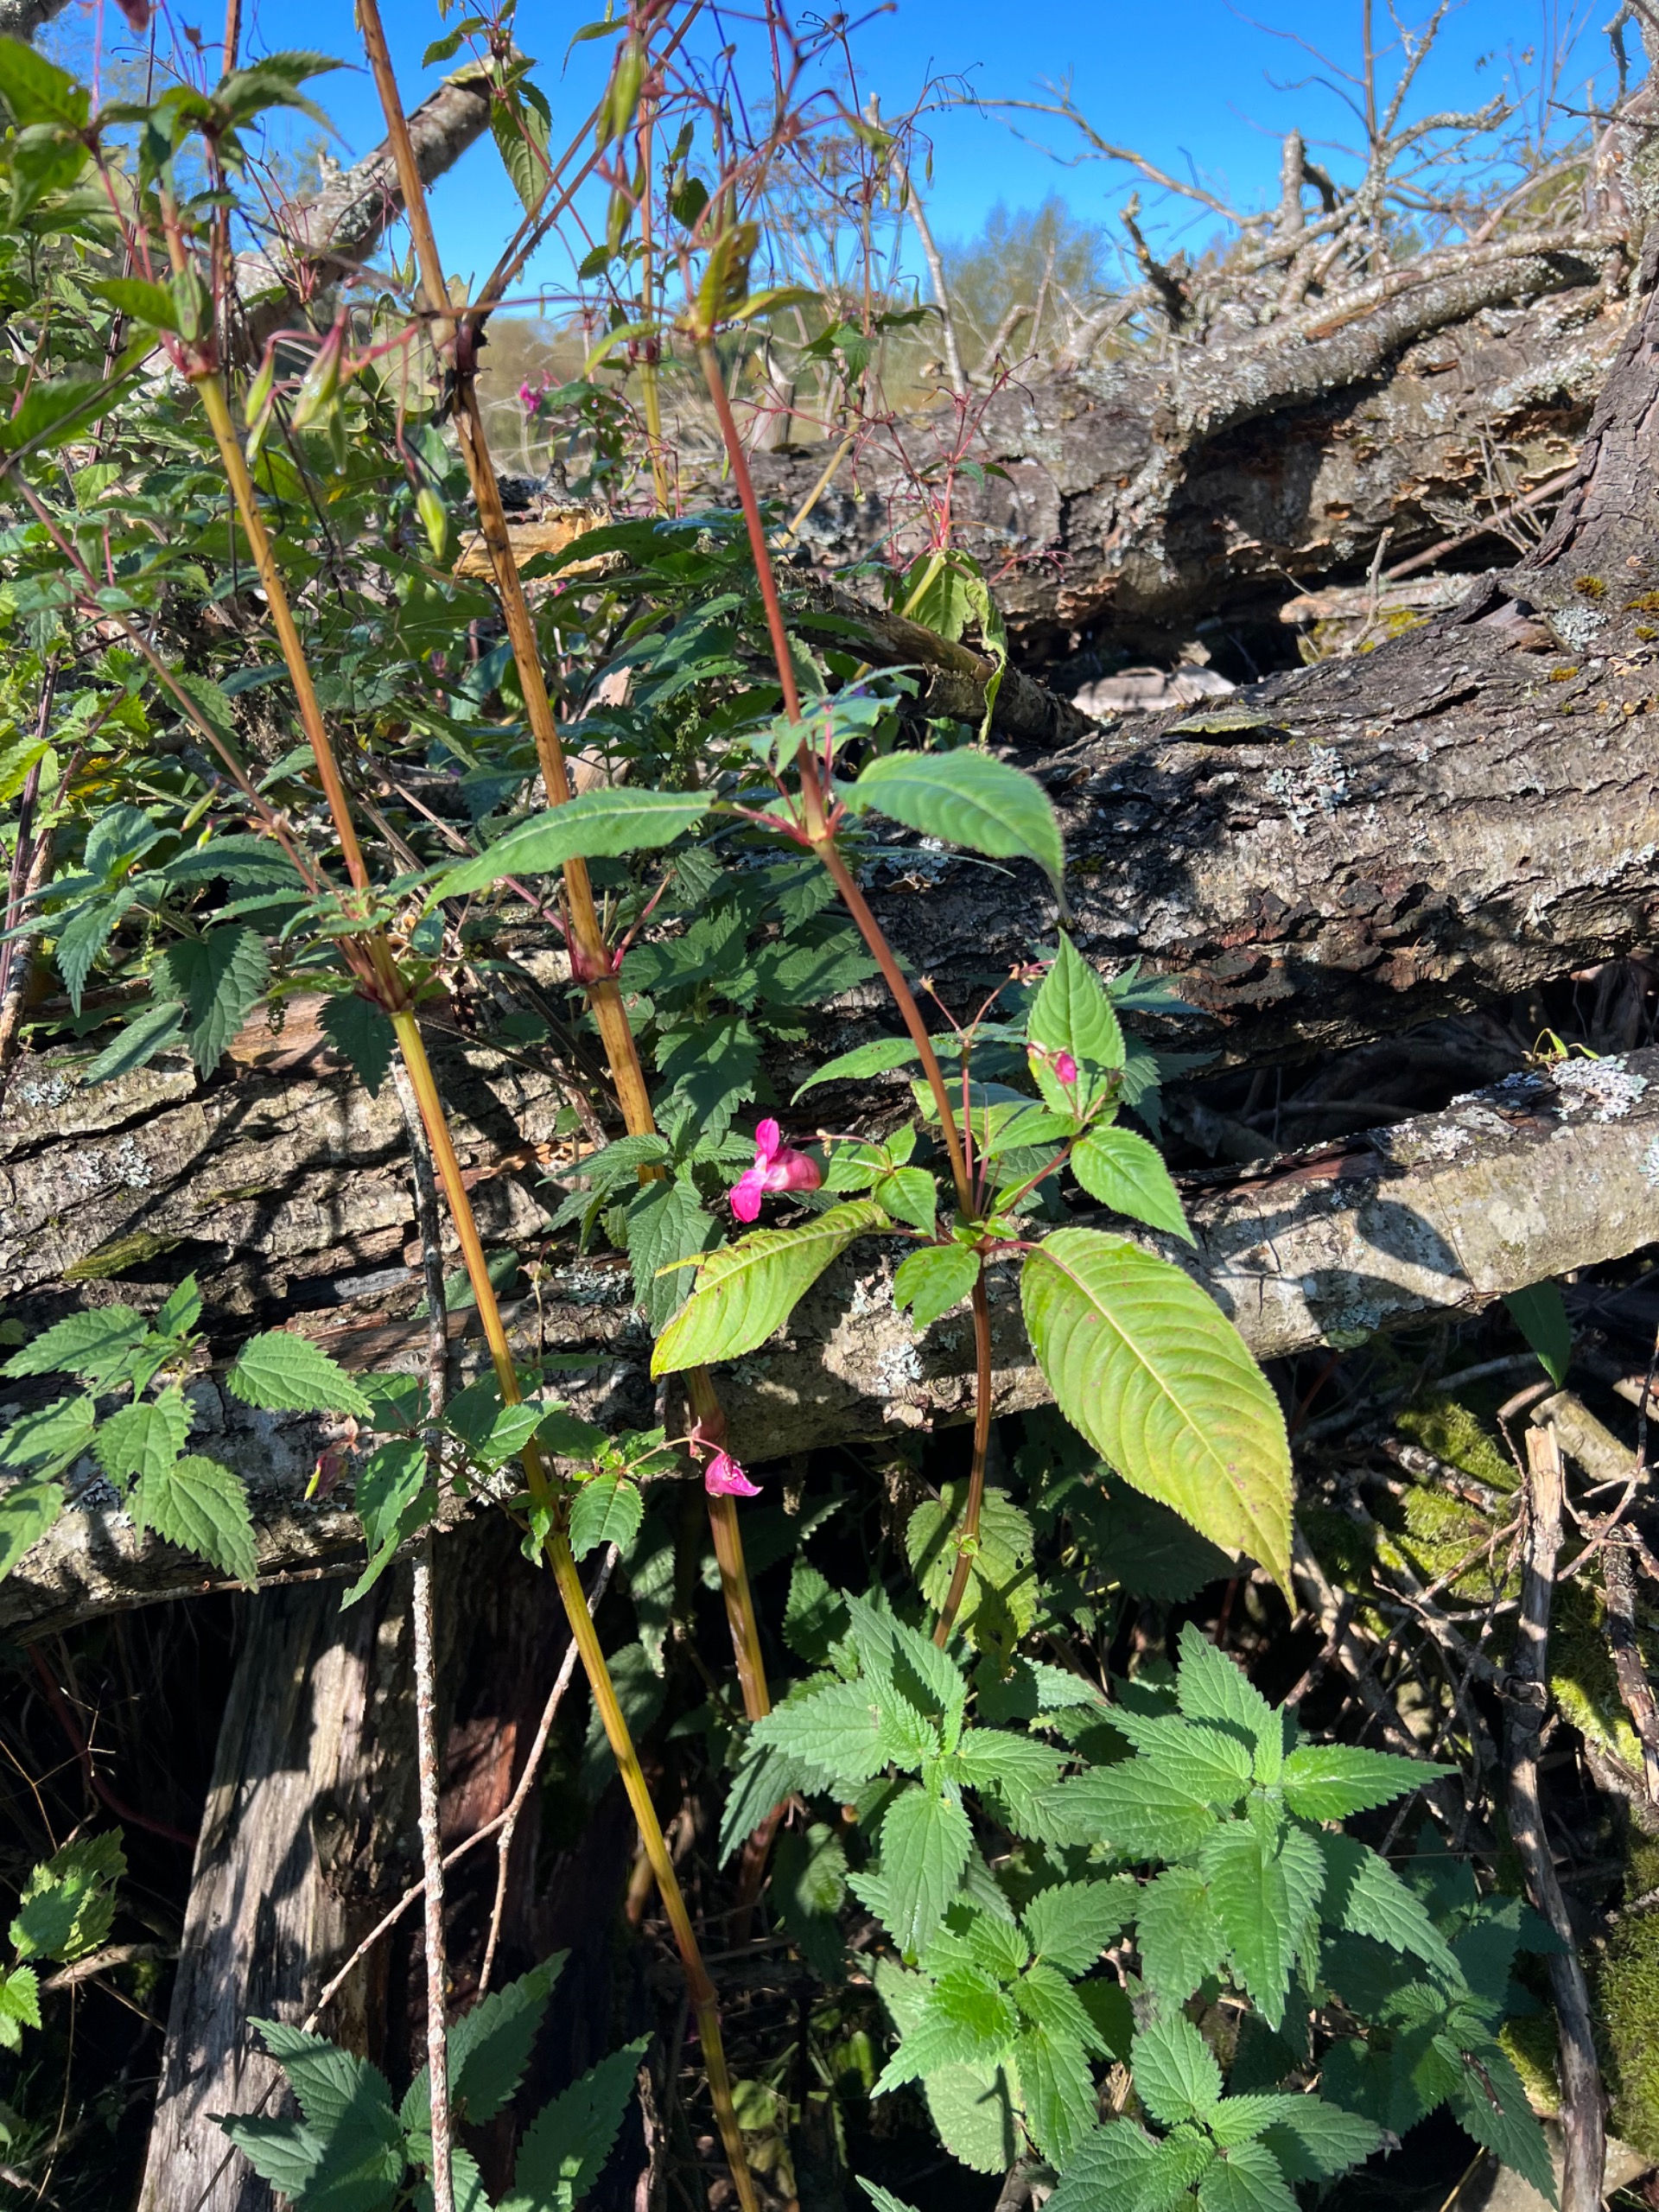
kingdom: Plantae
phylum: Tracheophyta
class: Magnoliopsida
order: Ericales
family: Balsaminaceae
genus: Impatiens
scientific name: Impatiens glandulifera
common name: Kæmpe-balsamin
